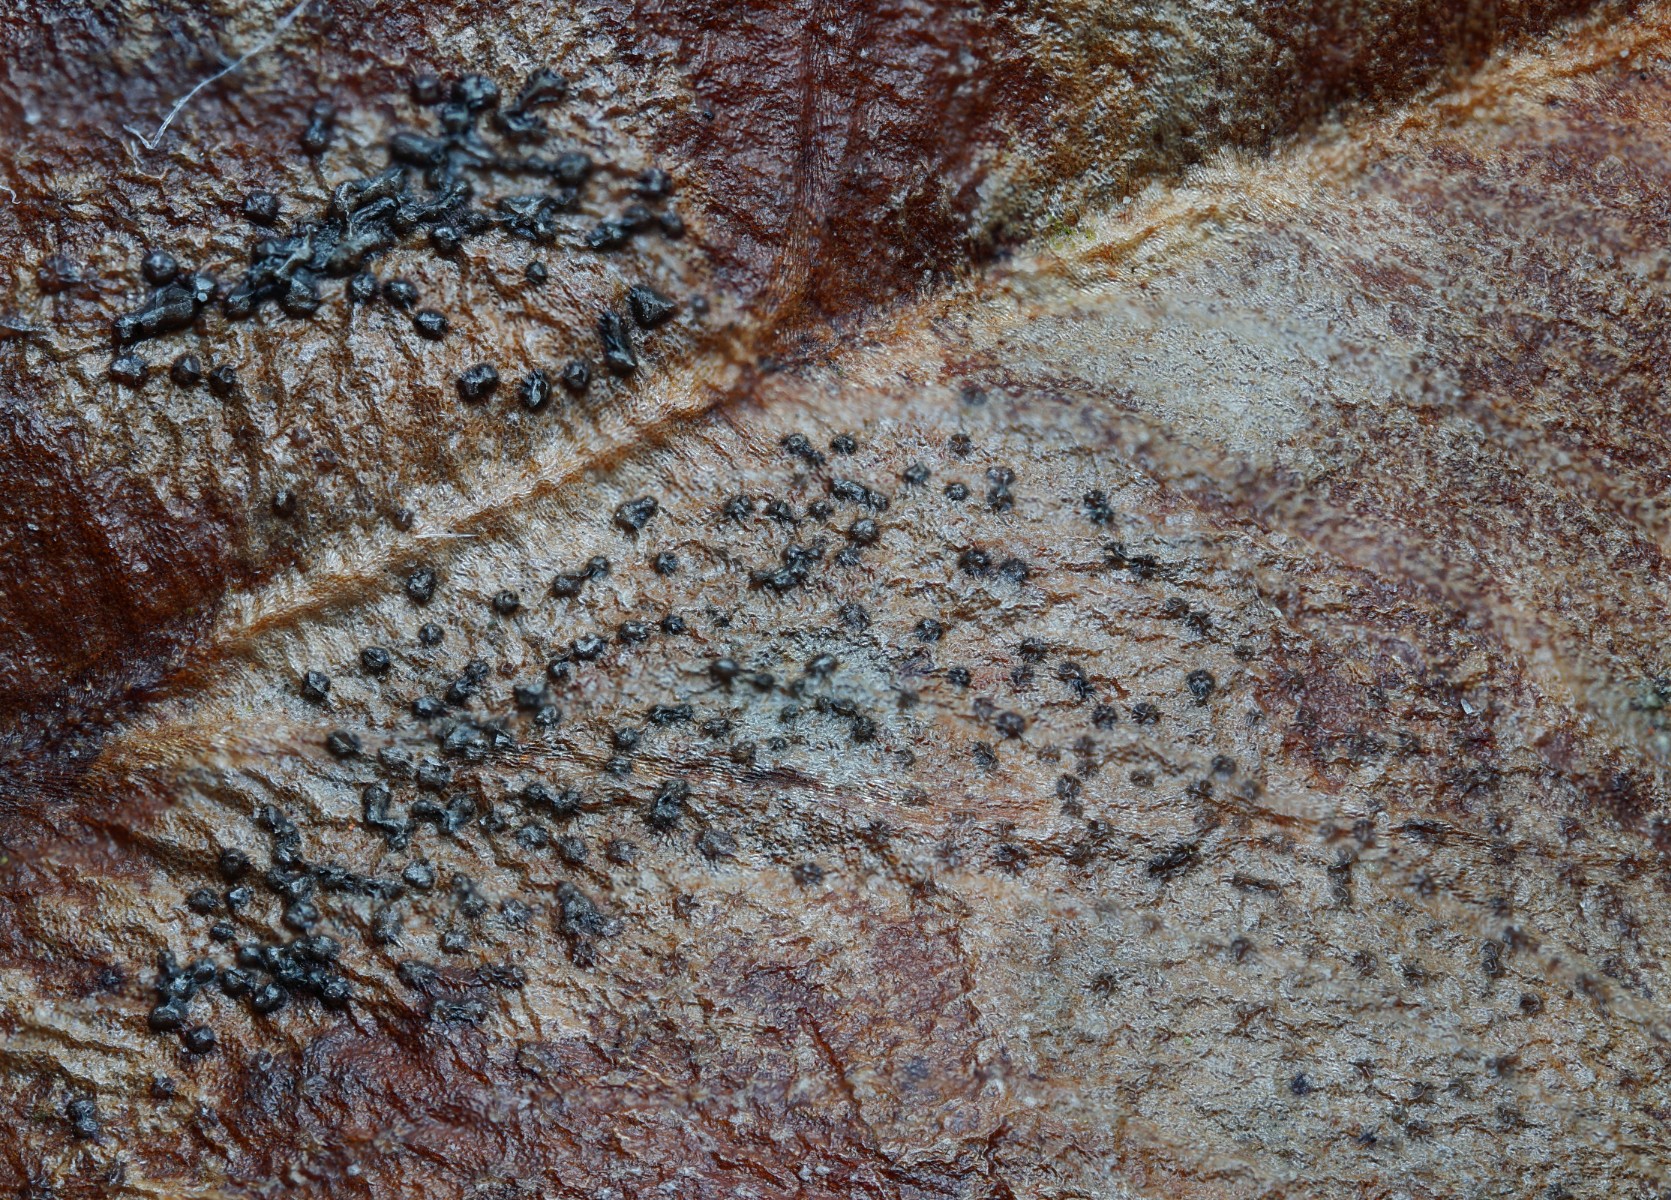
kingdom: Fungi
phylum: Ascomycota
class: Leotiomycetes
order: Helotiales
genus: Cryptocline
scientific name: Cryptocline phacidiella
